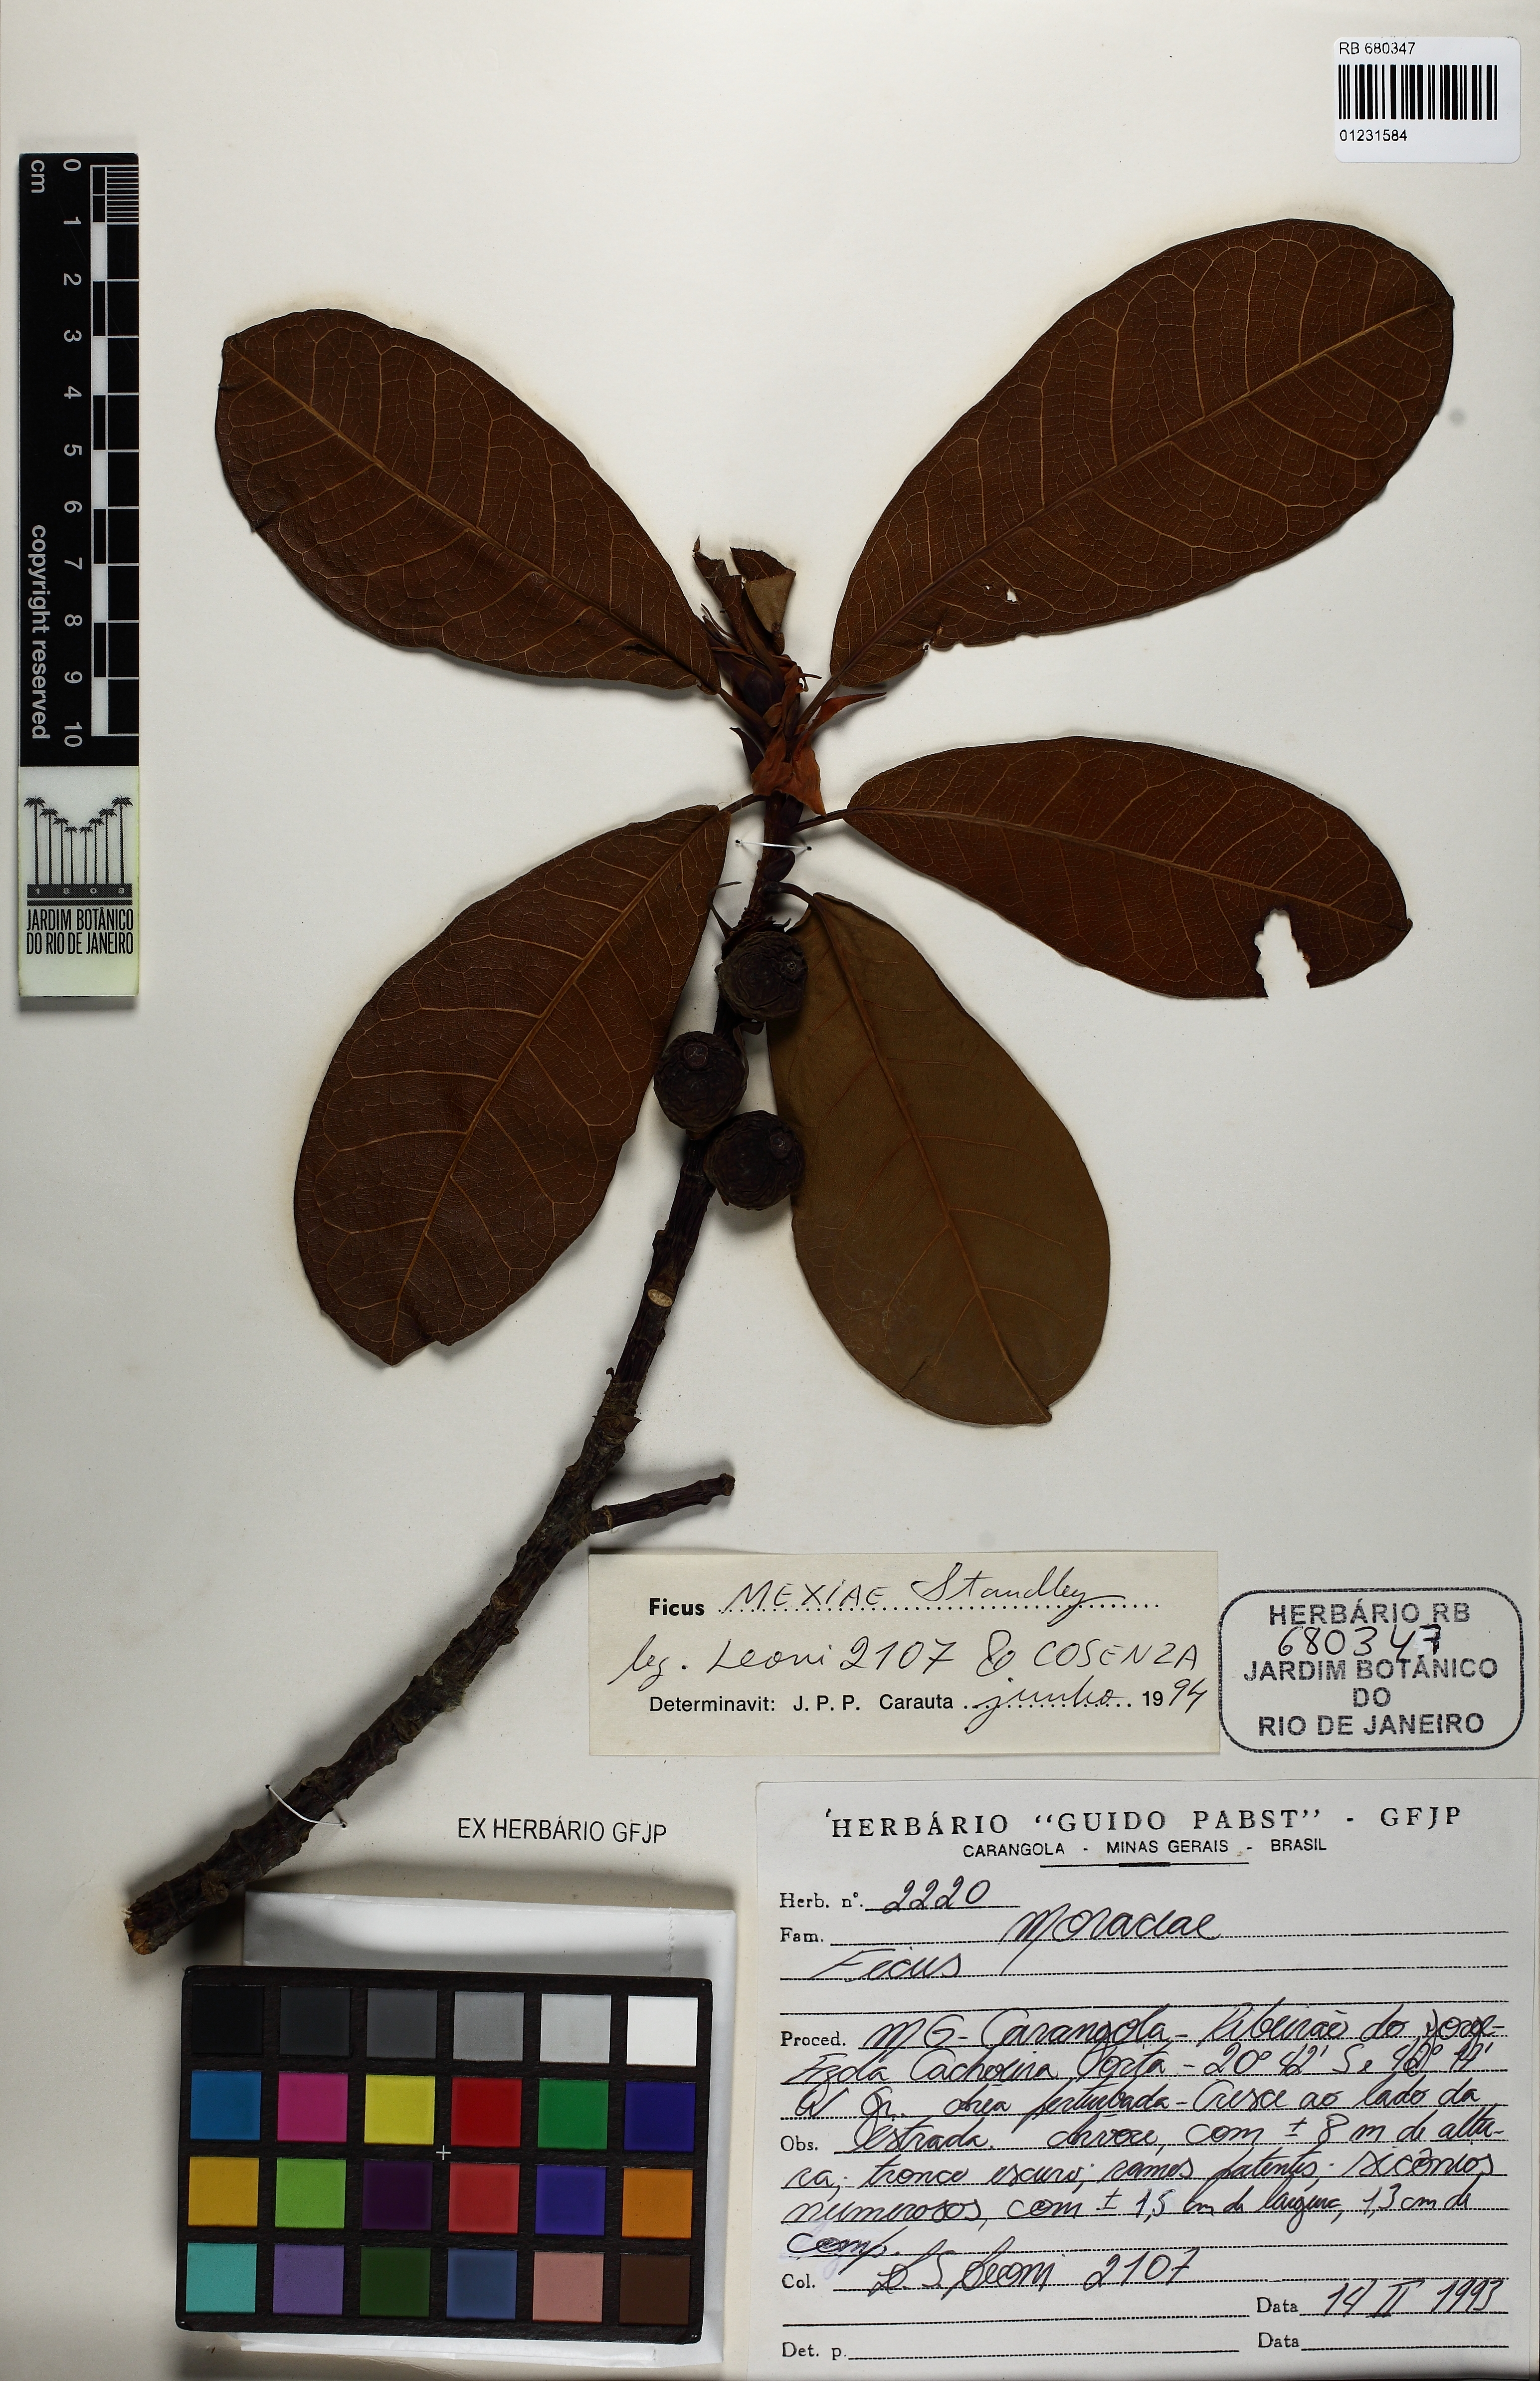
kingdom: Plantae
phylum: Tracheophyta
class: Magnoliopsida
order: Rosales
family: Moraceae
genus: Ficus
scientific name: Ficus mexiae
